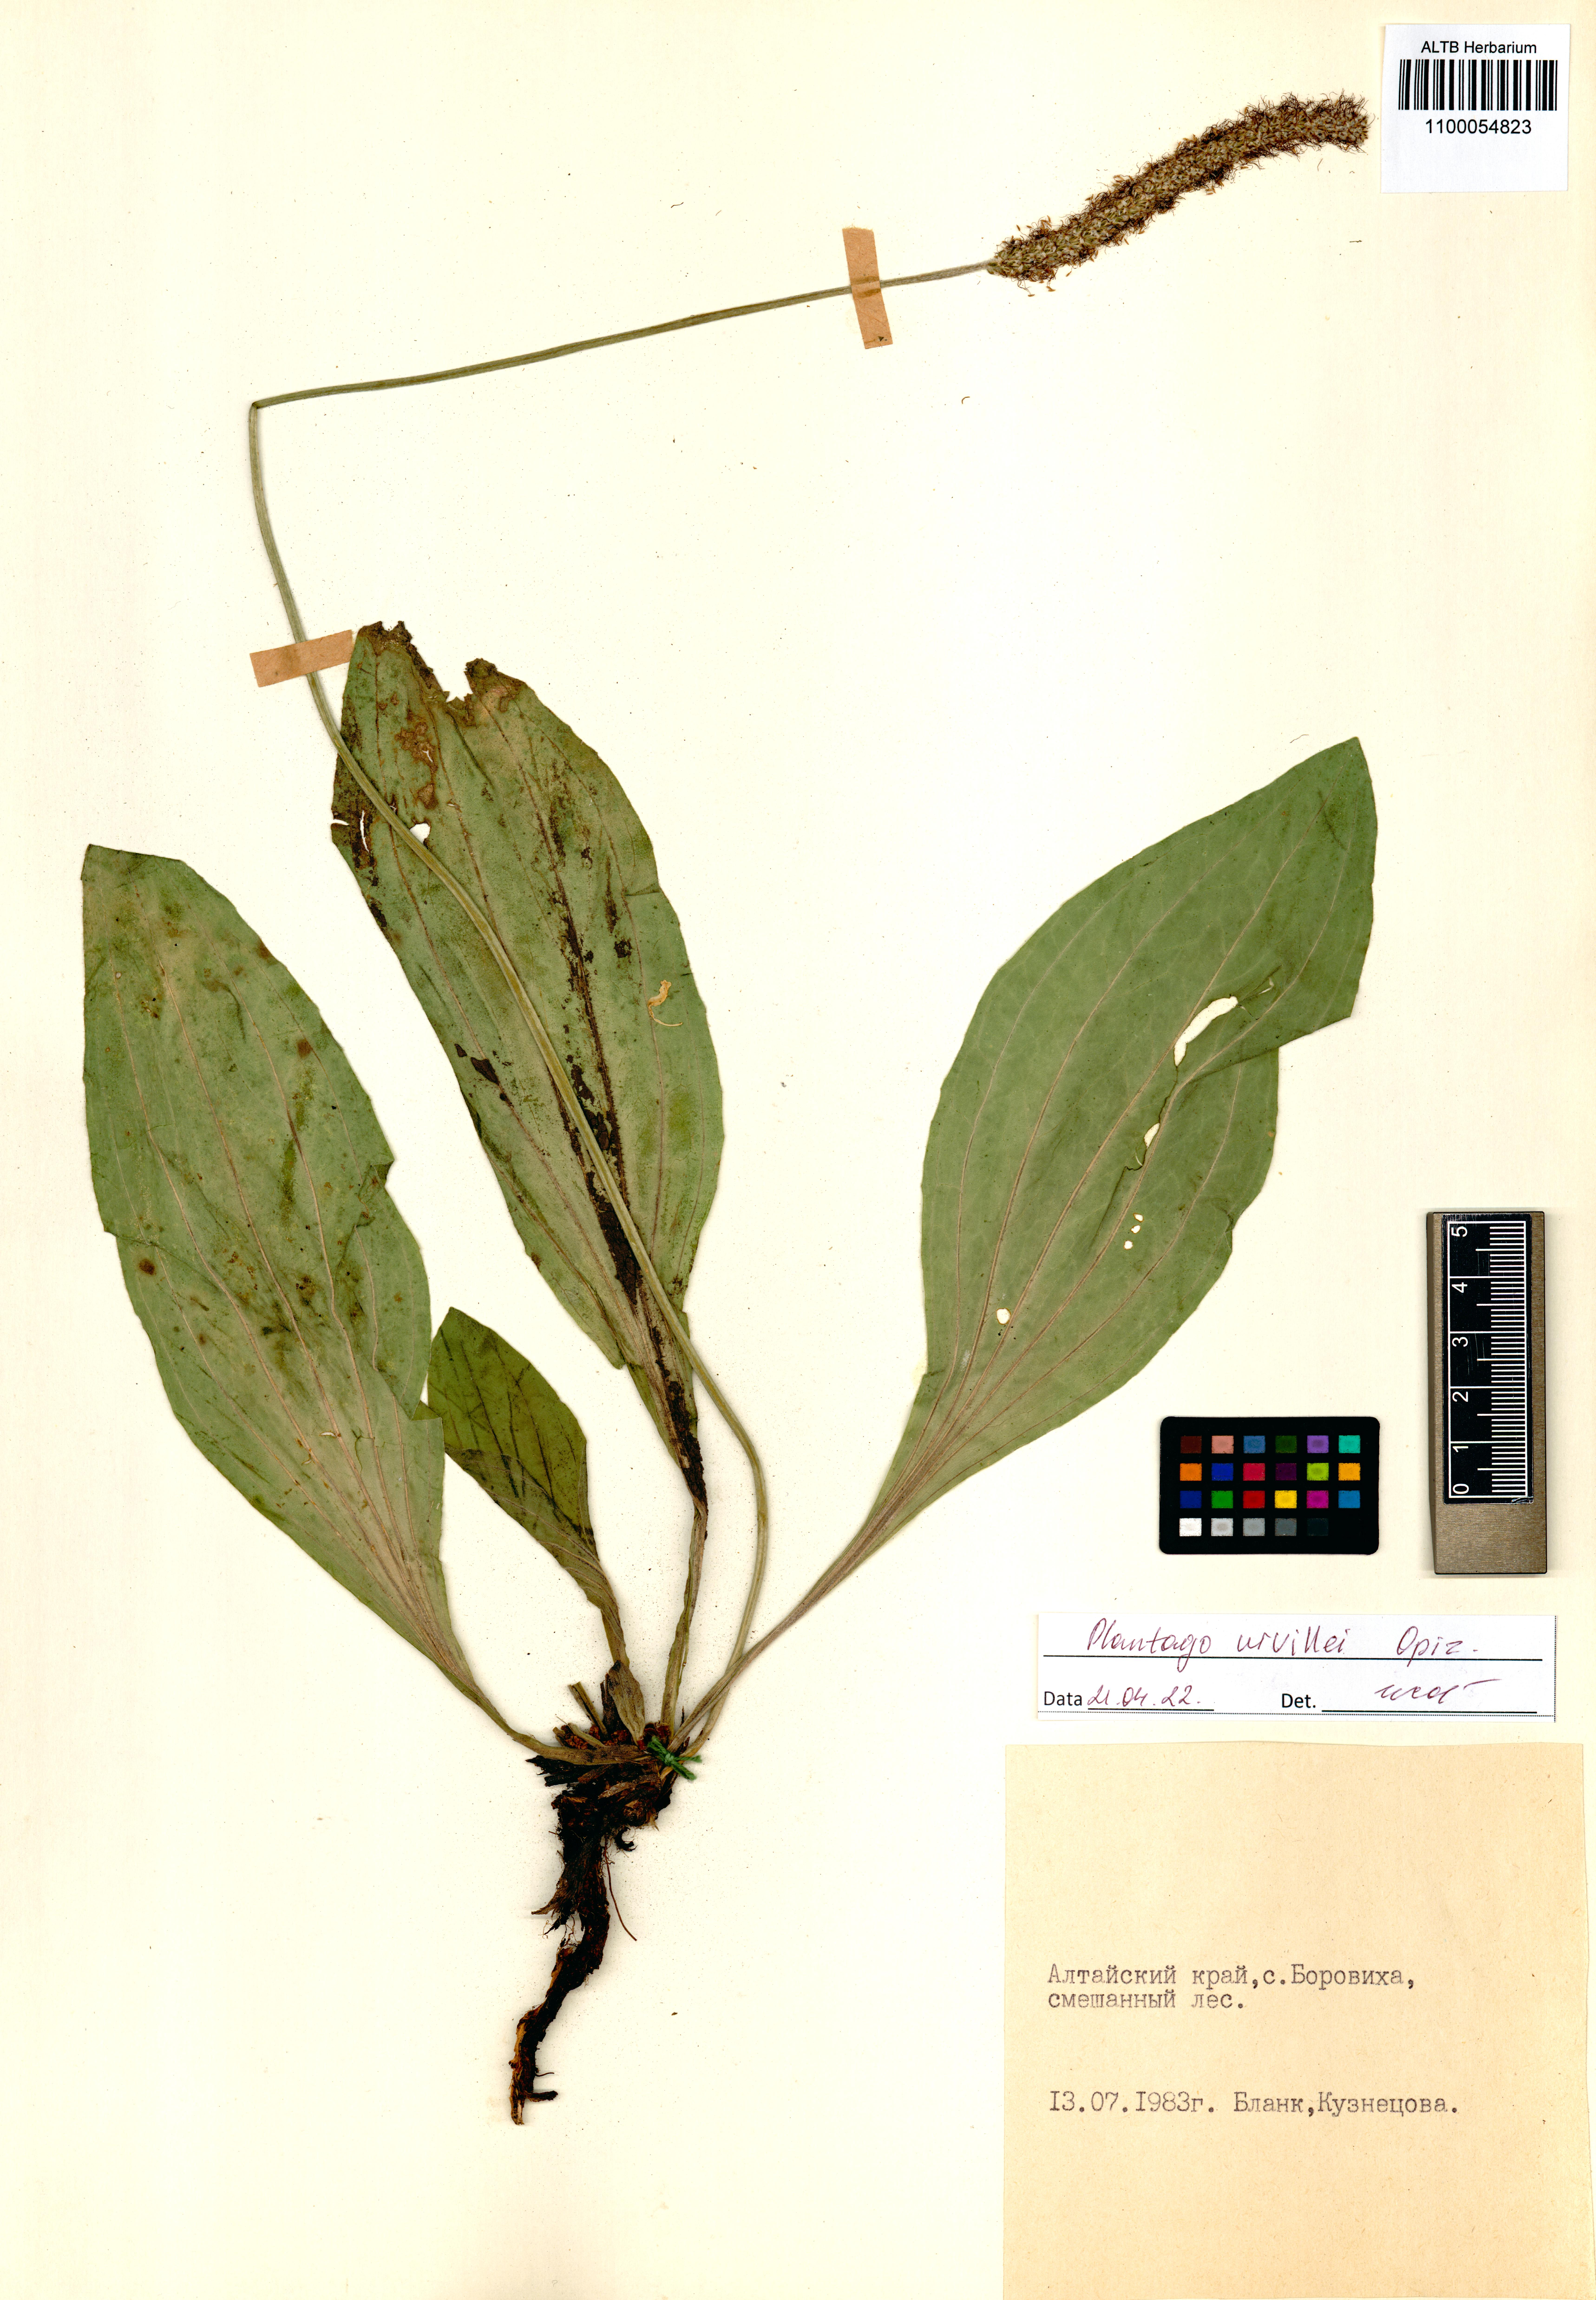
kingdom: Plantae
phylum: Tracheophyta
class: Magnoliopsida
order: Lamiales
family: Plantaginaceae
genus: Plantago
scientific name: Plantago urvillei
